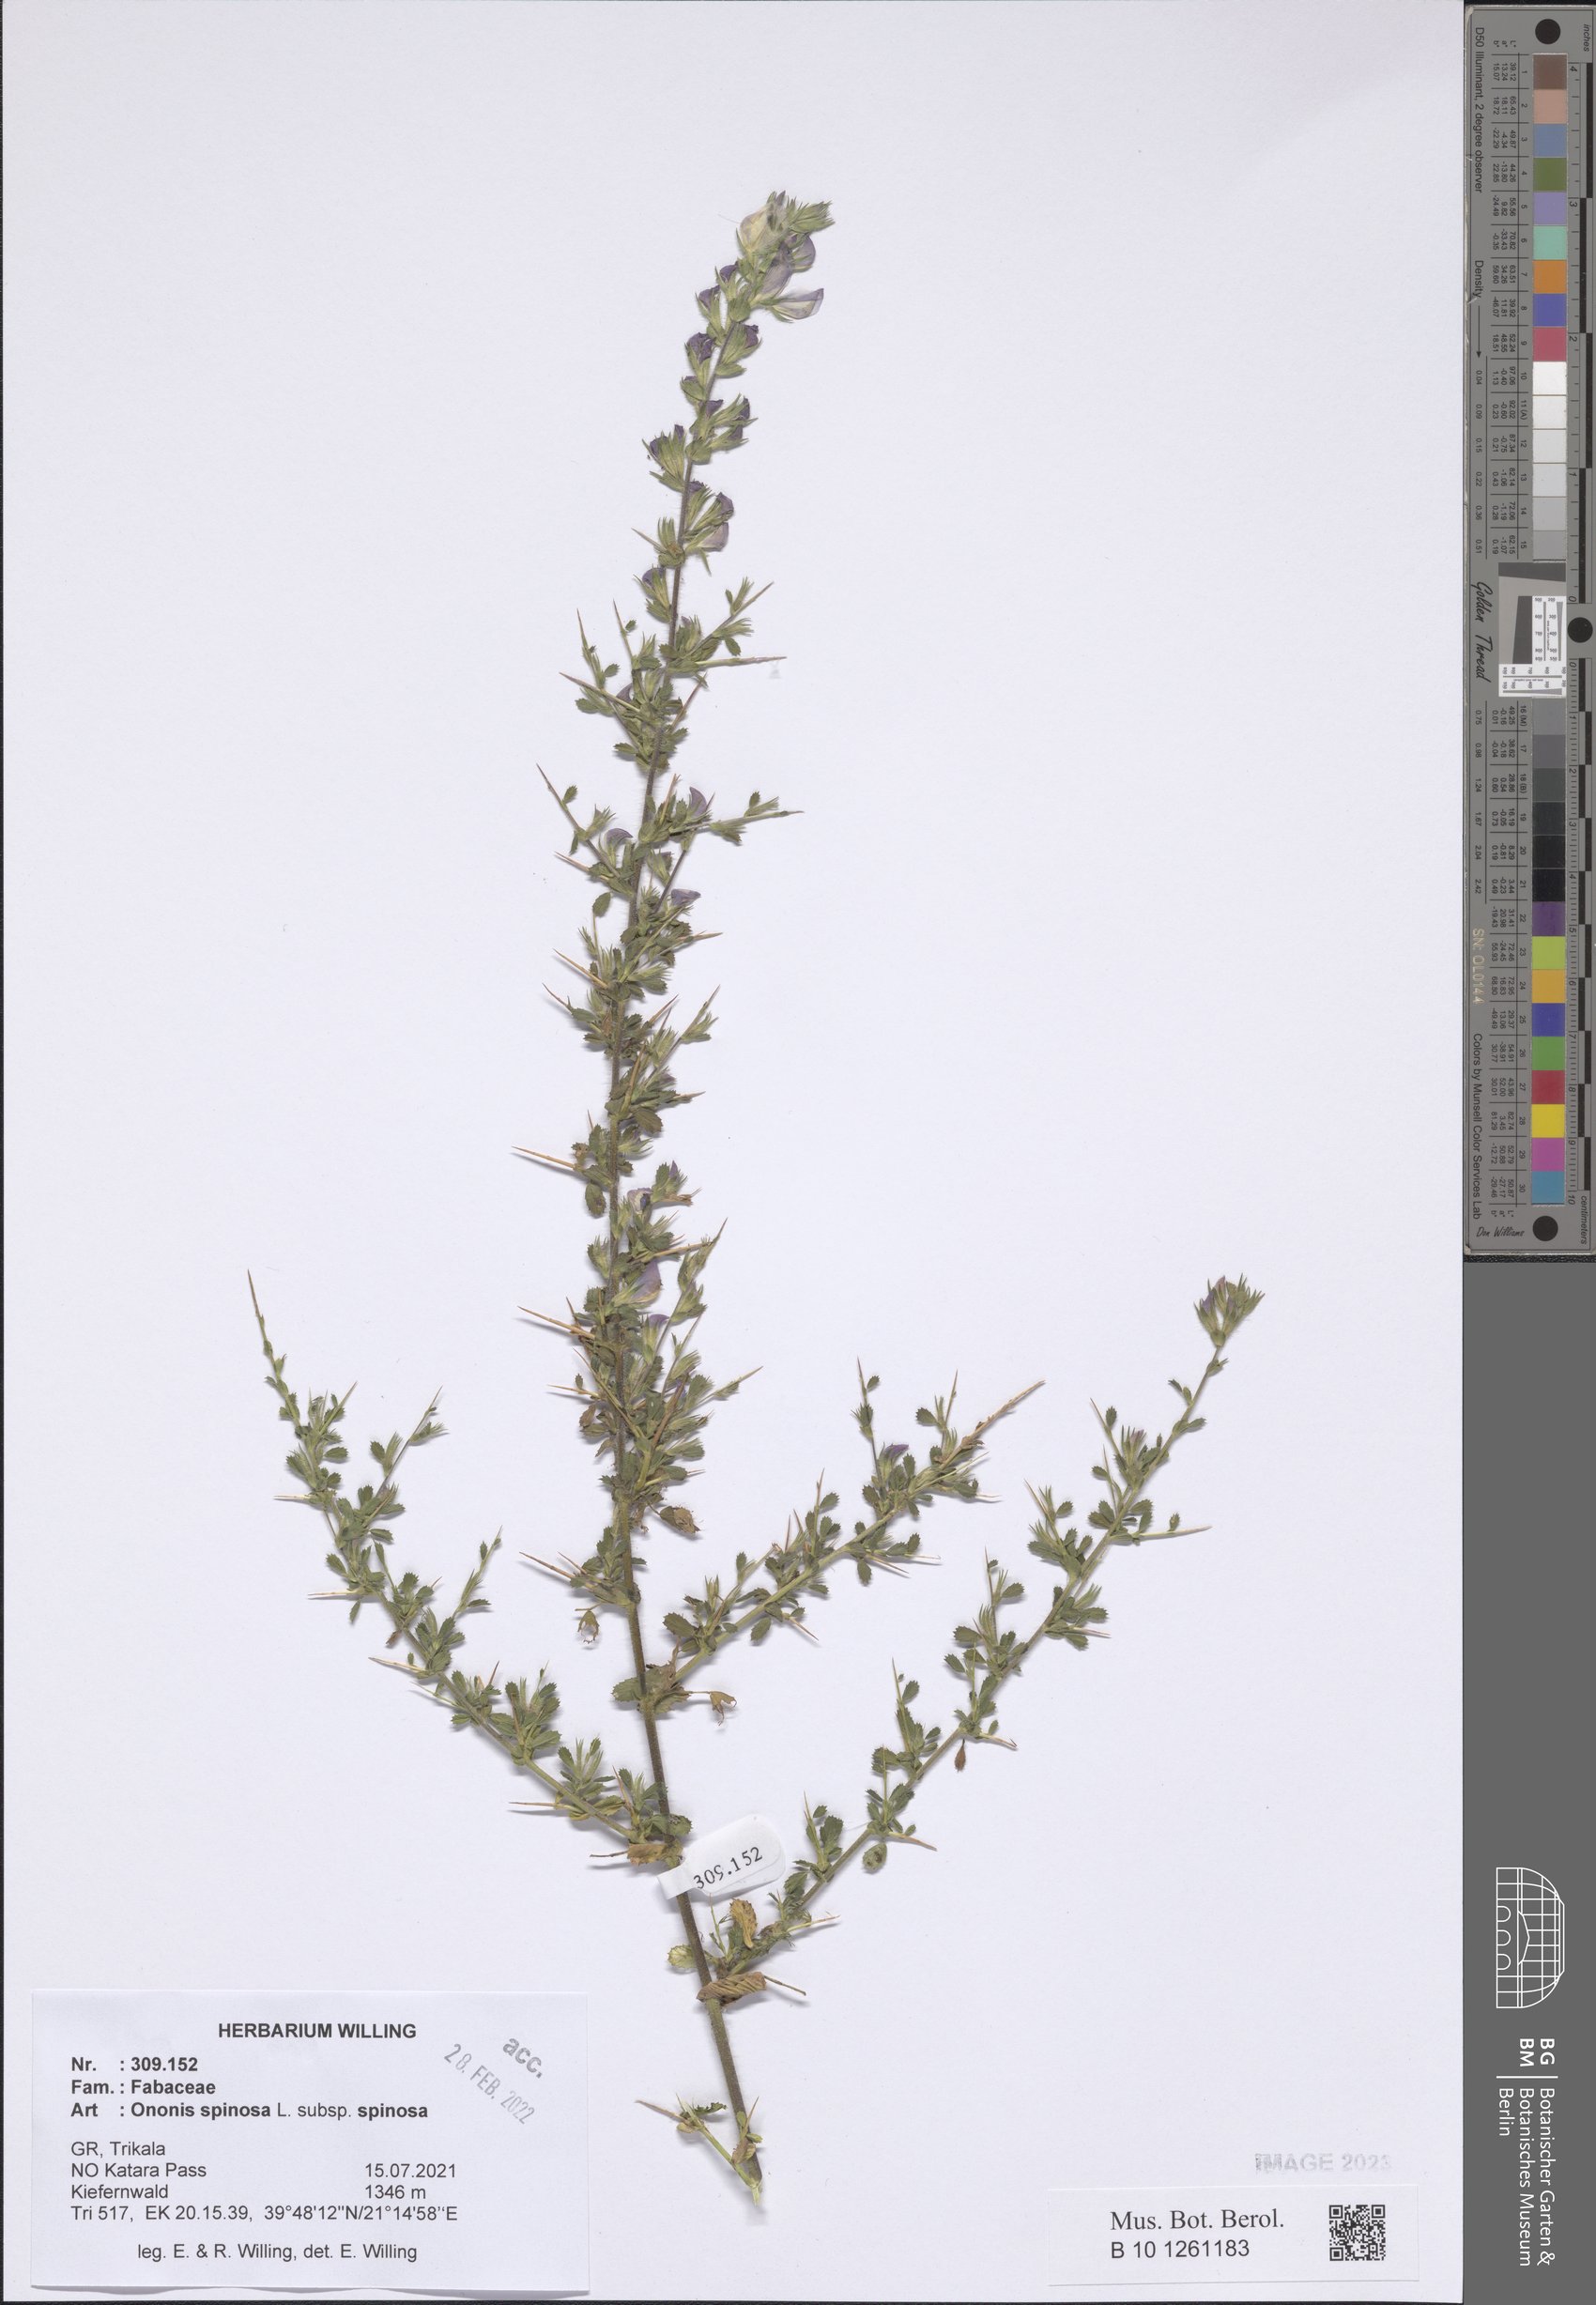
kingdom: Plantae
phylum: Tracheophyta
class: Magnoliopsida
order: Fabales
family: Fabaceae
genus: Ononis
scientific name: Ononis spinosa
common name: Spiny restharrow
